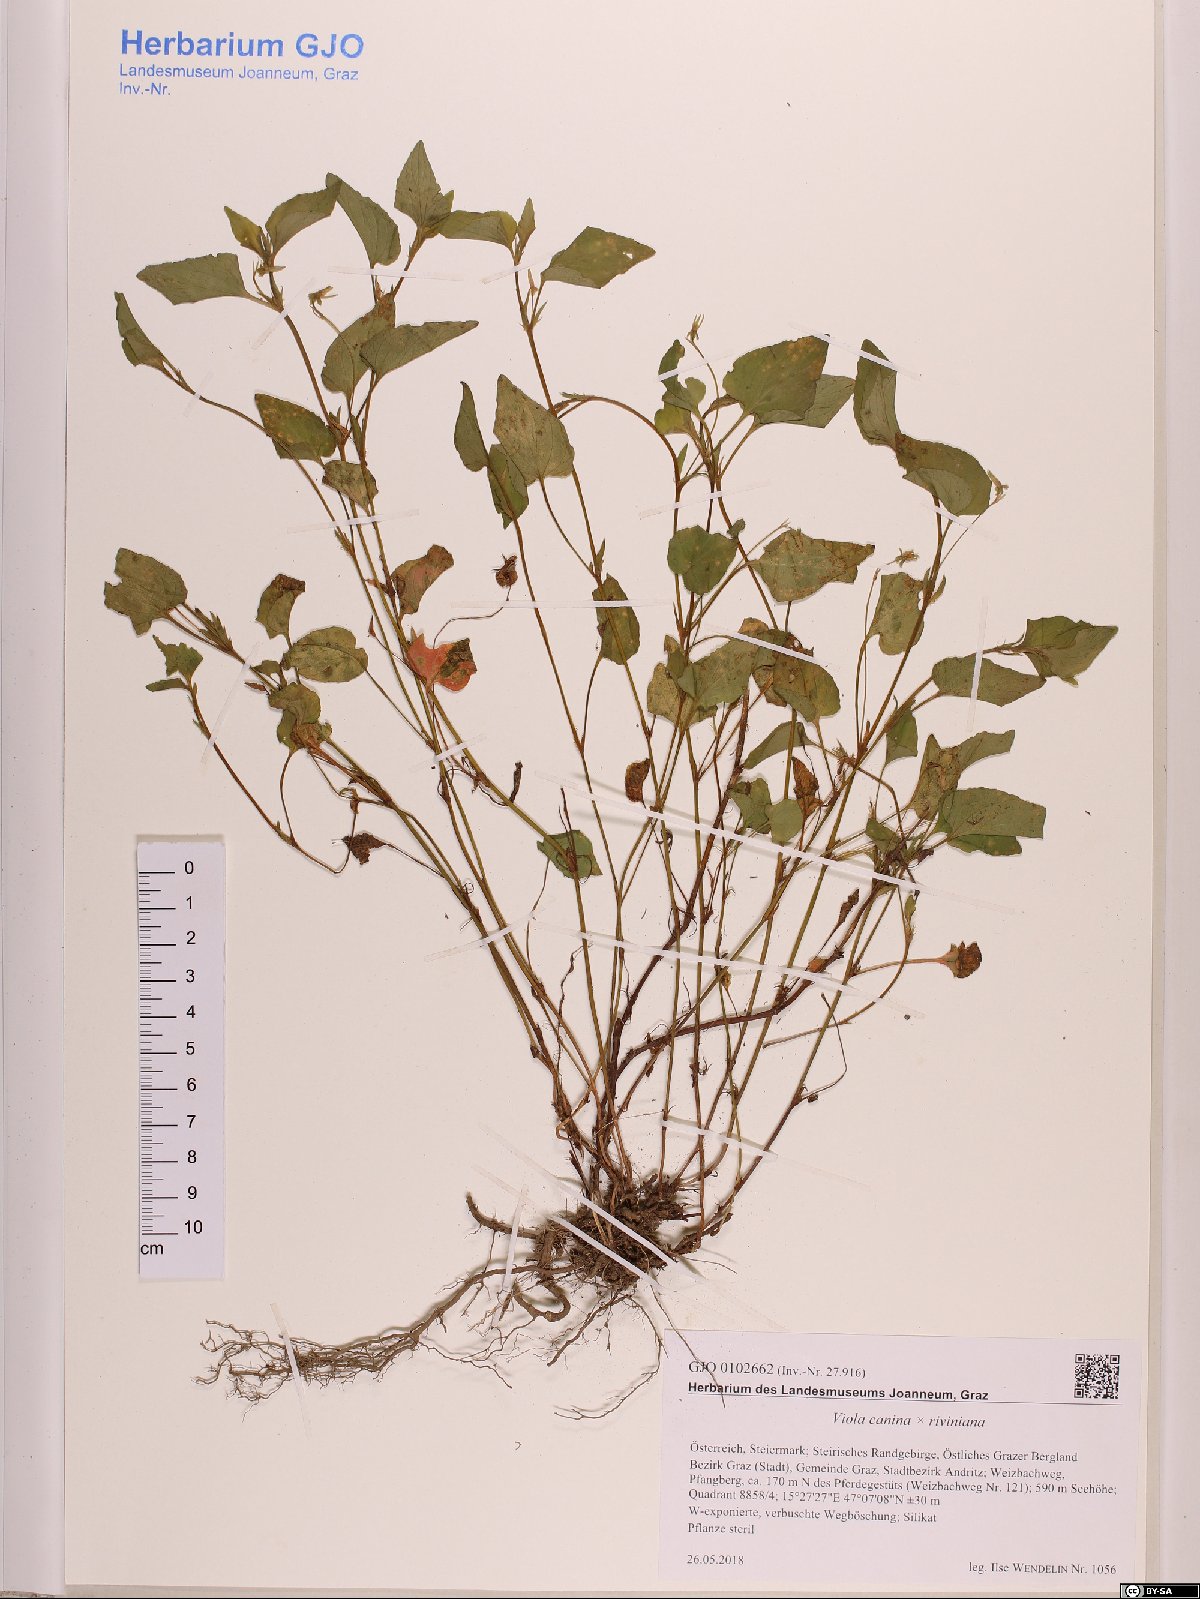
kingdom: Plantae
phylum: Tracheophyta
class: Magnoliopsida
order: Malpighiales
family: Violaceae
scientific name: Violaceae
